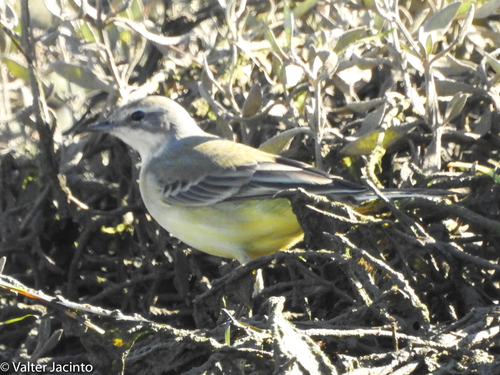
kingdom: Animalia
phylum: Chordata
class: Aves
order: Passeriformes
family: Motacillidae
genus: Motacilla
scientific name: Motacilla flava
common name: Western yellow wagtail
